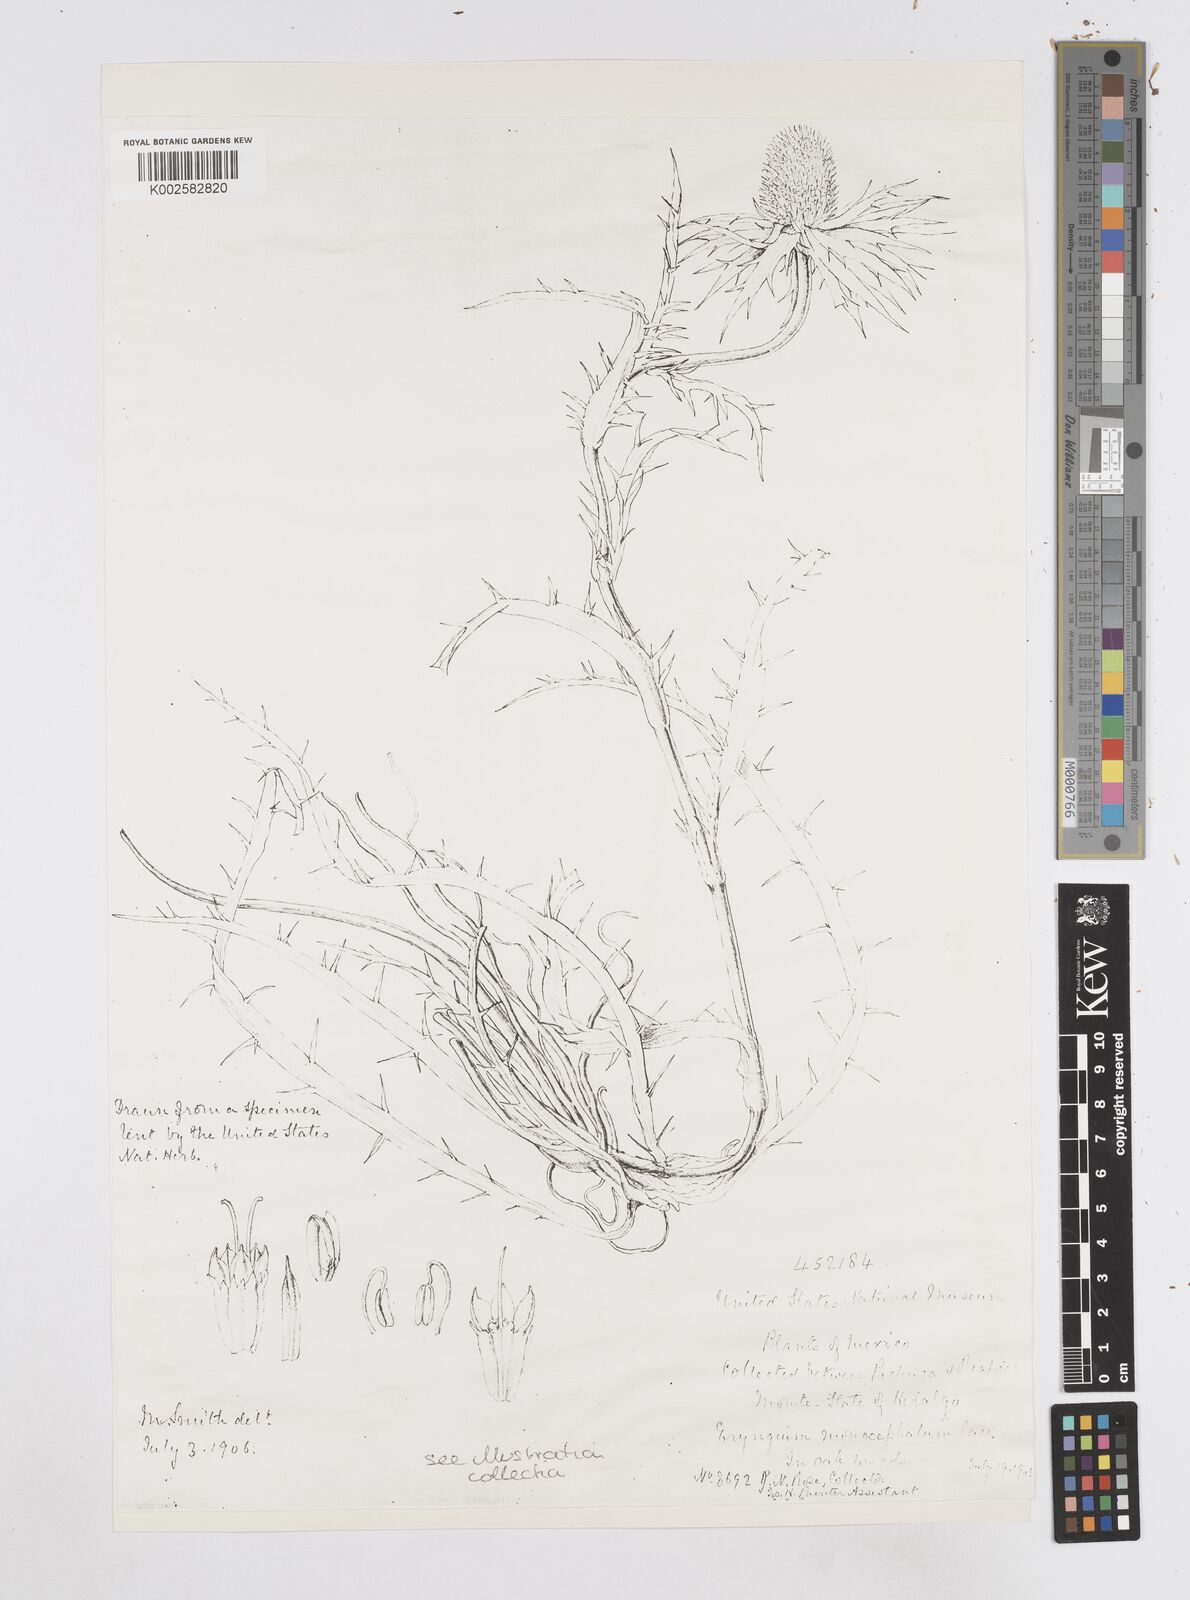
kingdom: Plantae
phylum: Tracheophyta
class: Magnoliopsida
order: Apiales
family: Apiaceae
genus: Eryngium
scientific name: Eryngium monocephalum
